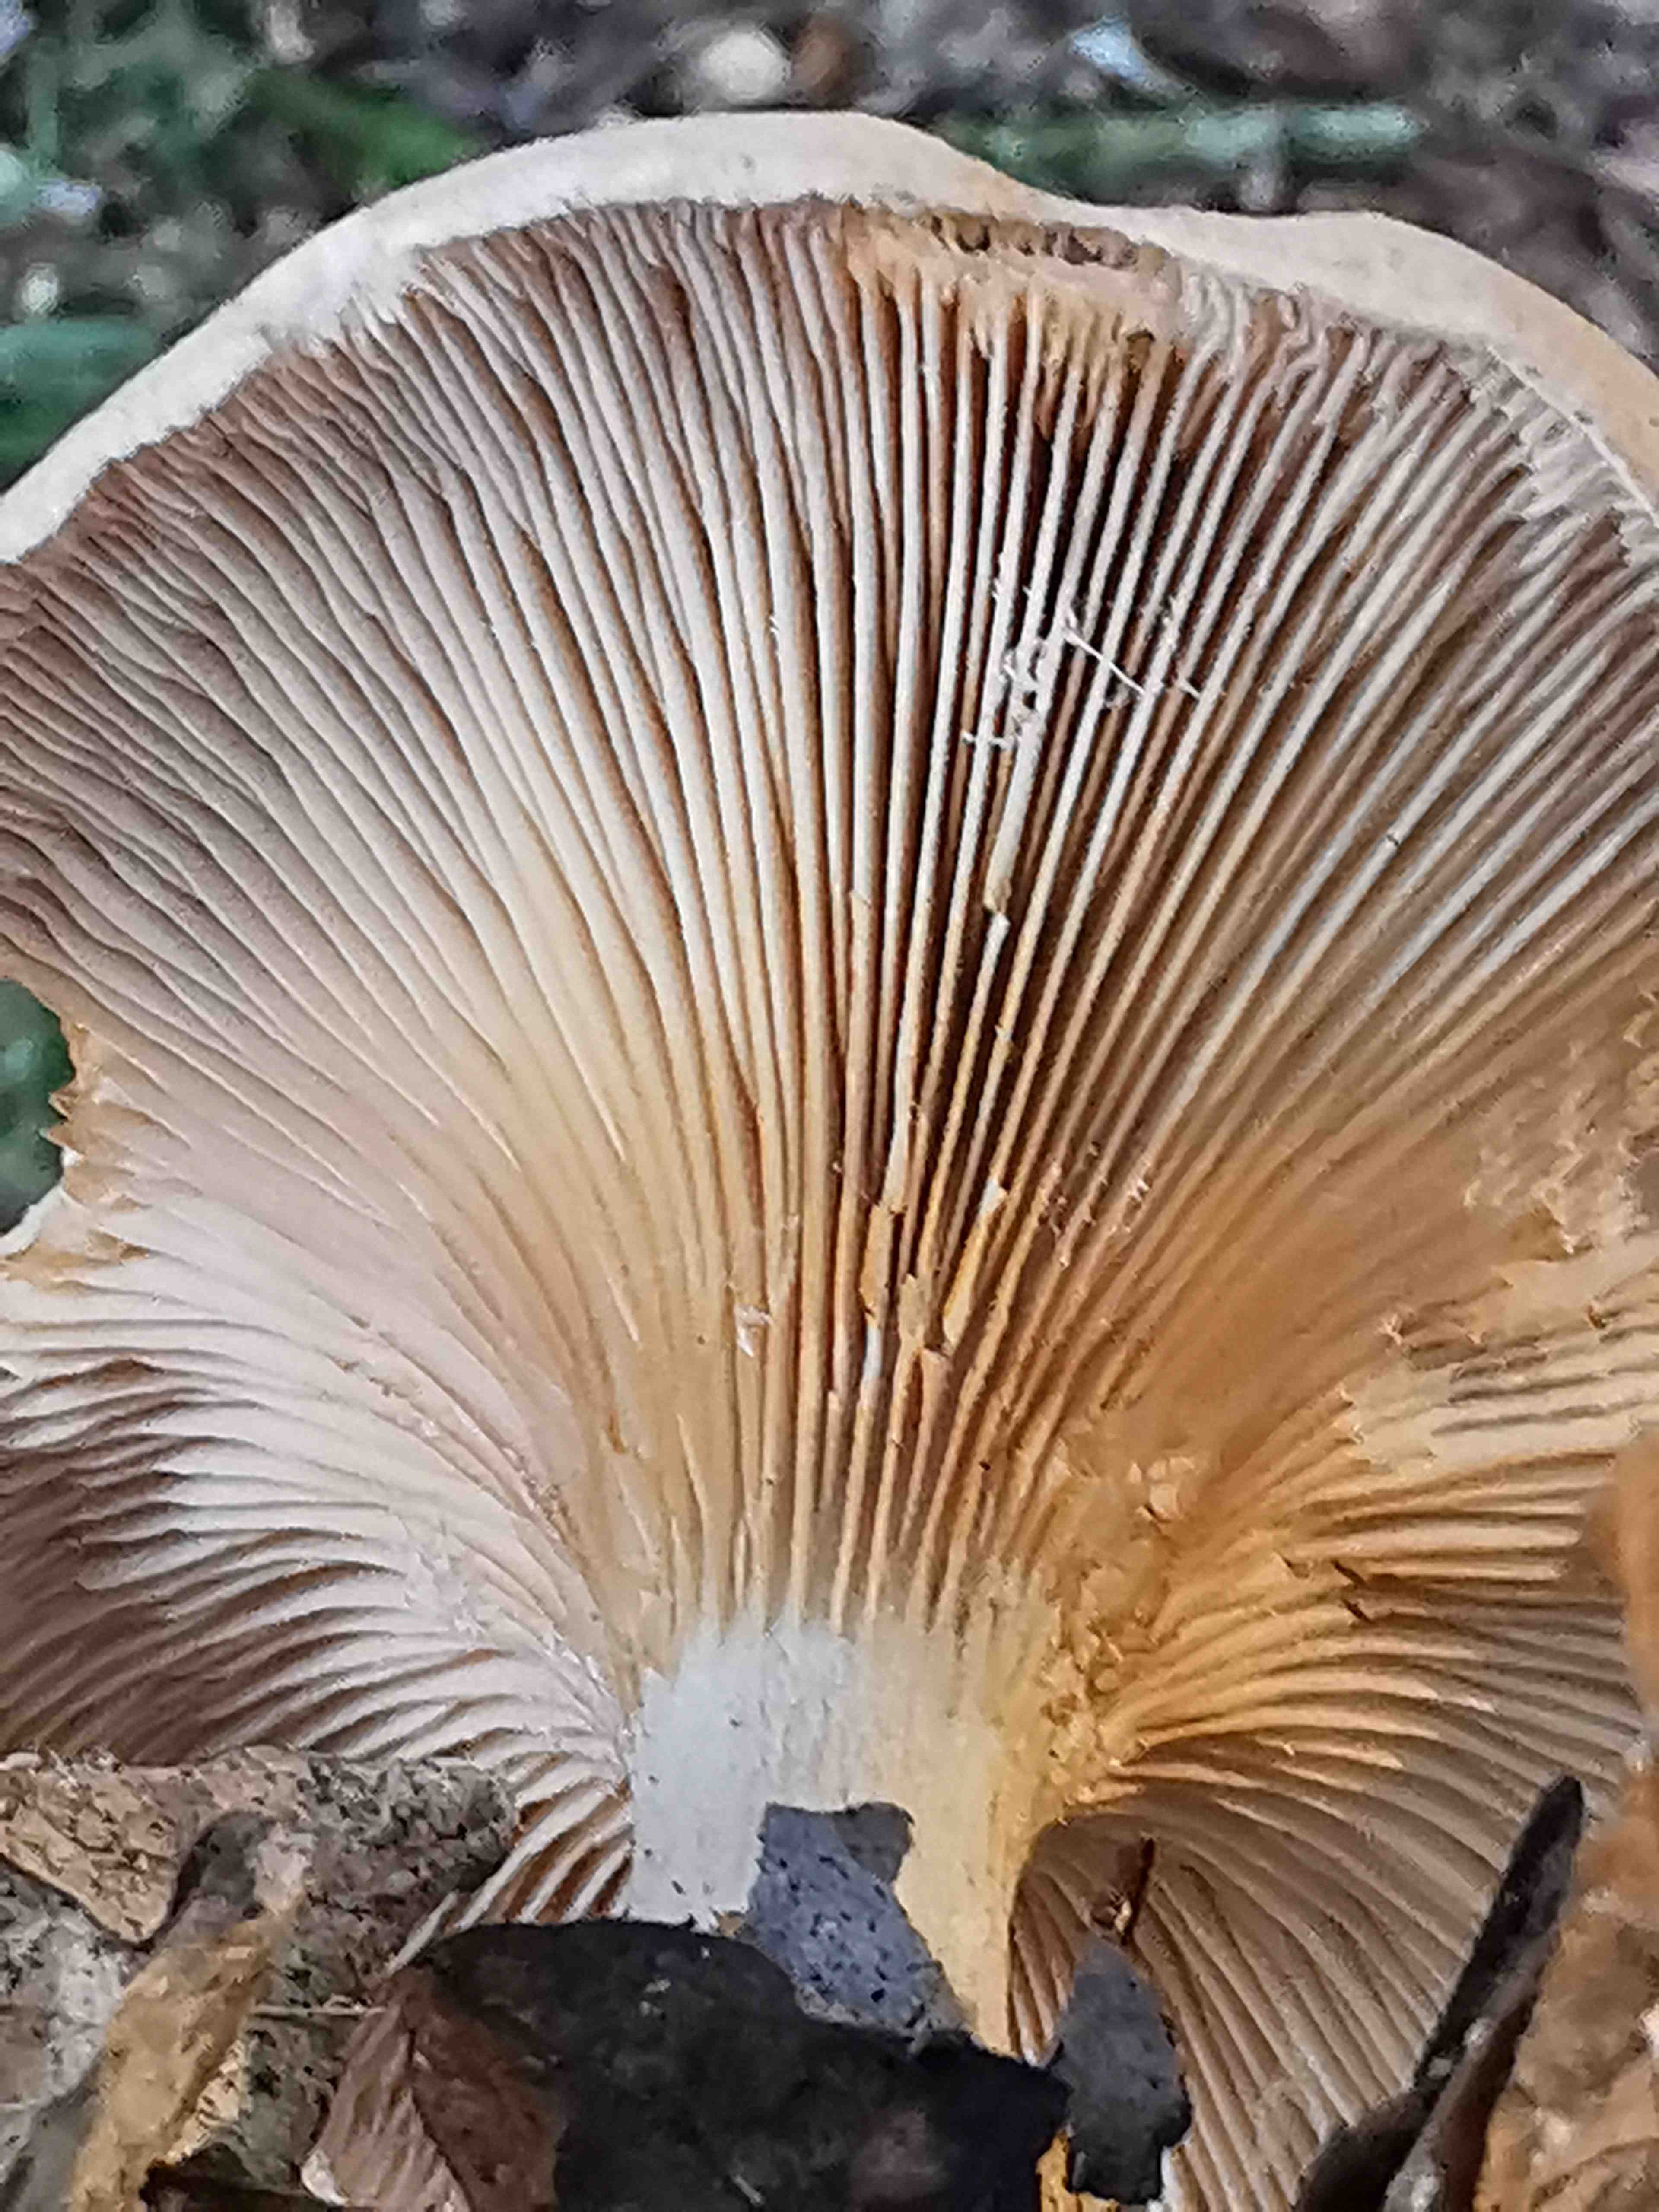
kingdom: Fungi
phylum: Basidiomycota
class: Agaricomycetes
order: Agaricales
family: Tricholomataceae
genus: Paralepista
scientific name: Paralepista
